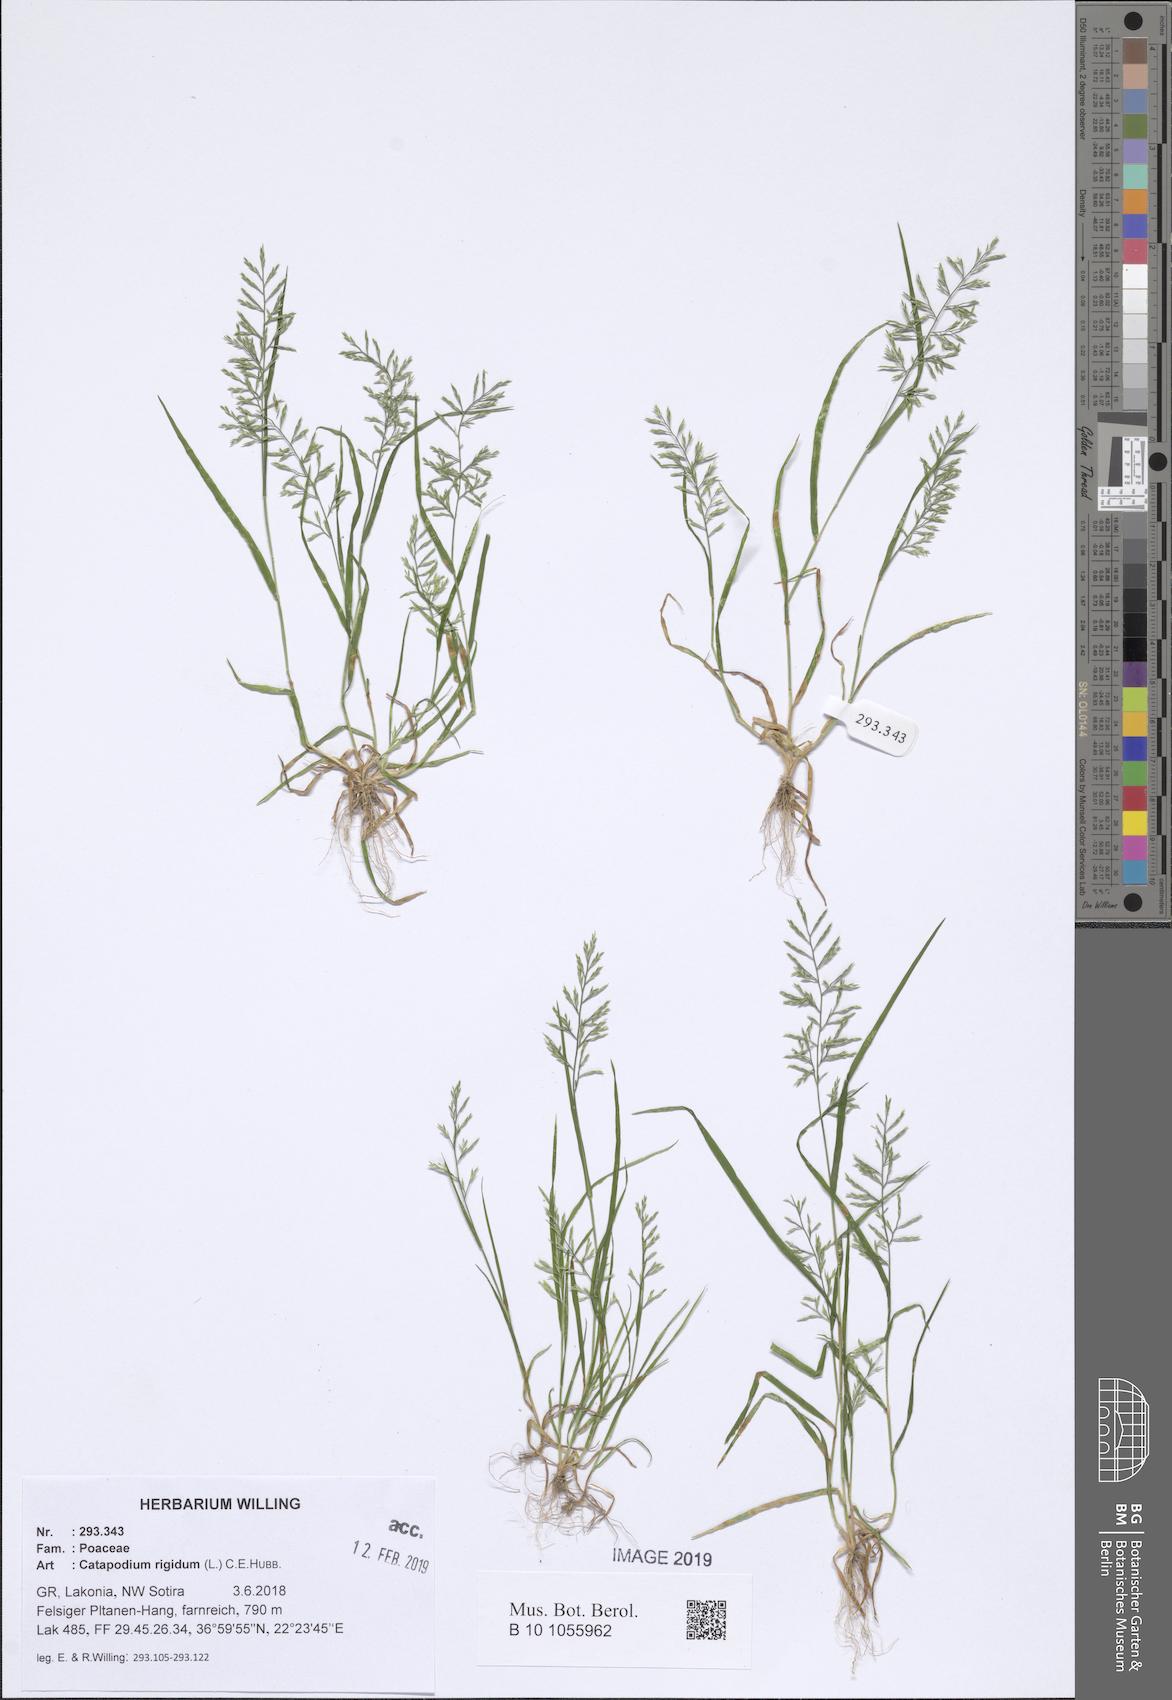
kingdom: Plantae
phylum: Tracheophyta
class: Liliopsida
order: Poales
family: Poaceae
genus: Catapodium
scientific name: Catapodium rigidum
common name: Fern-grass
